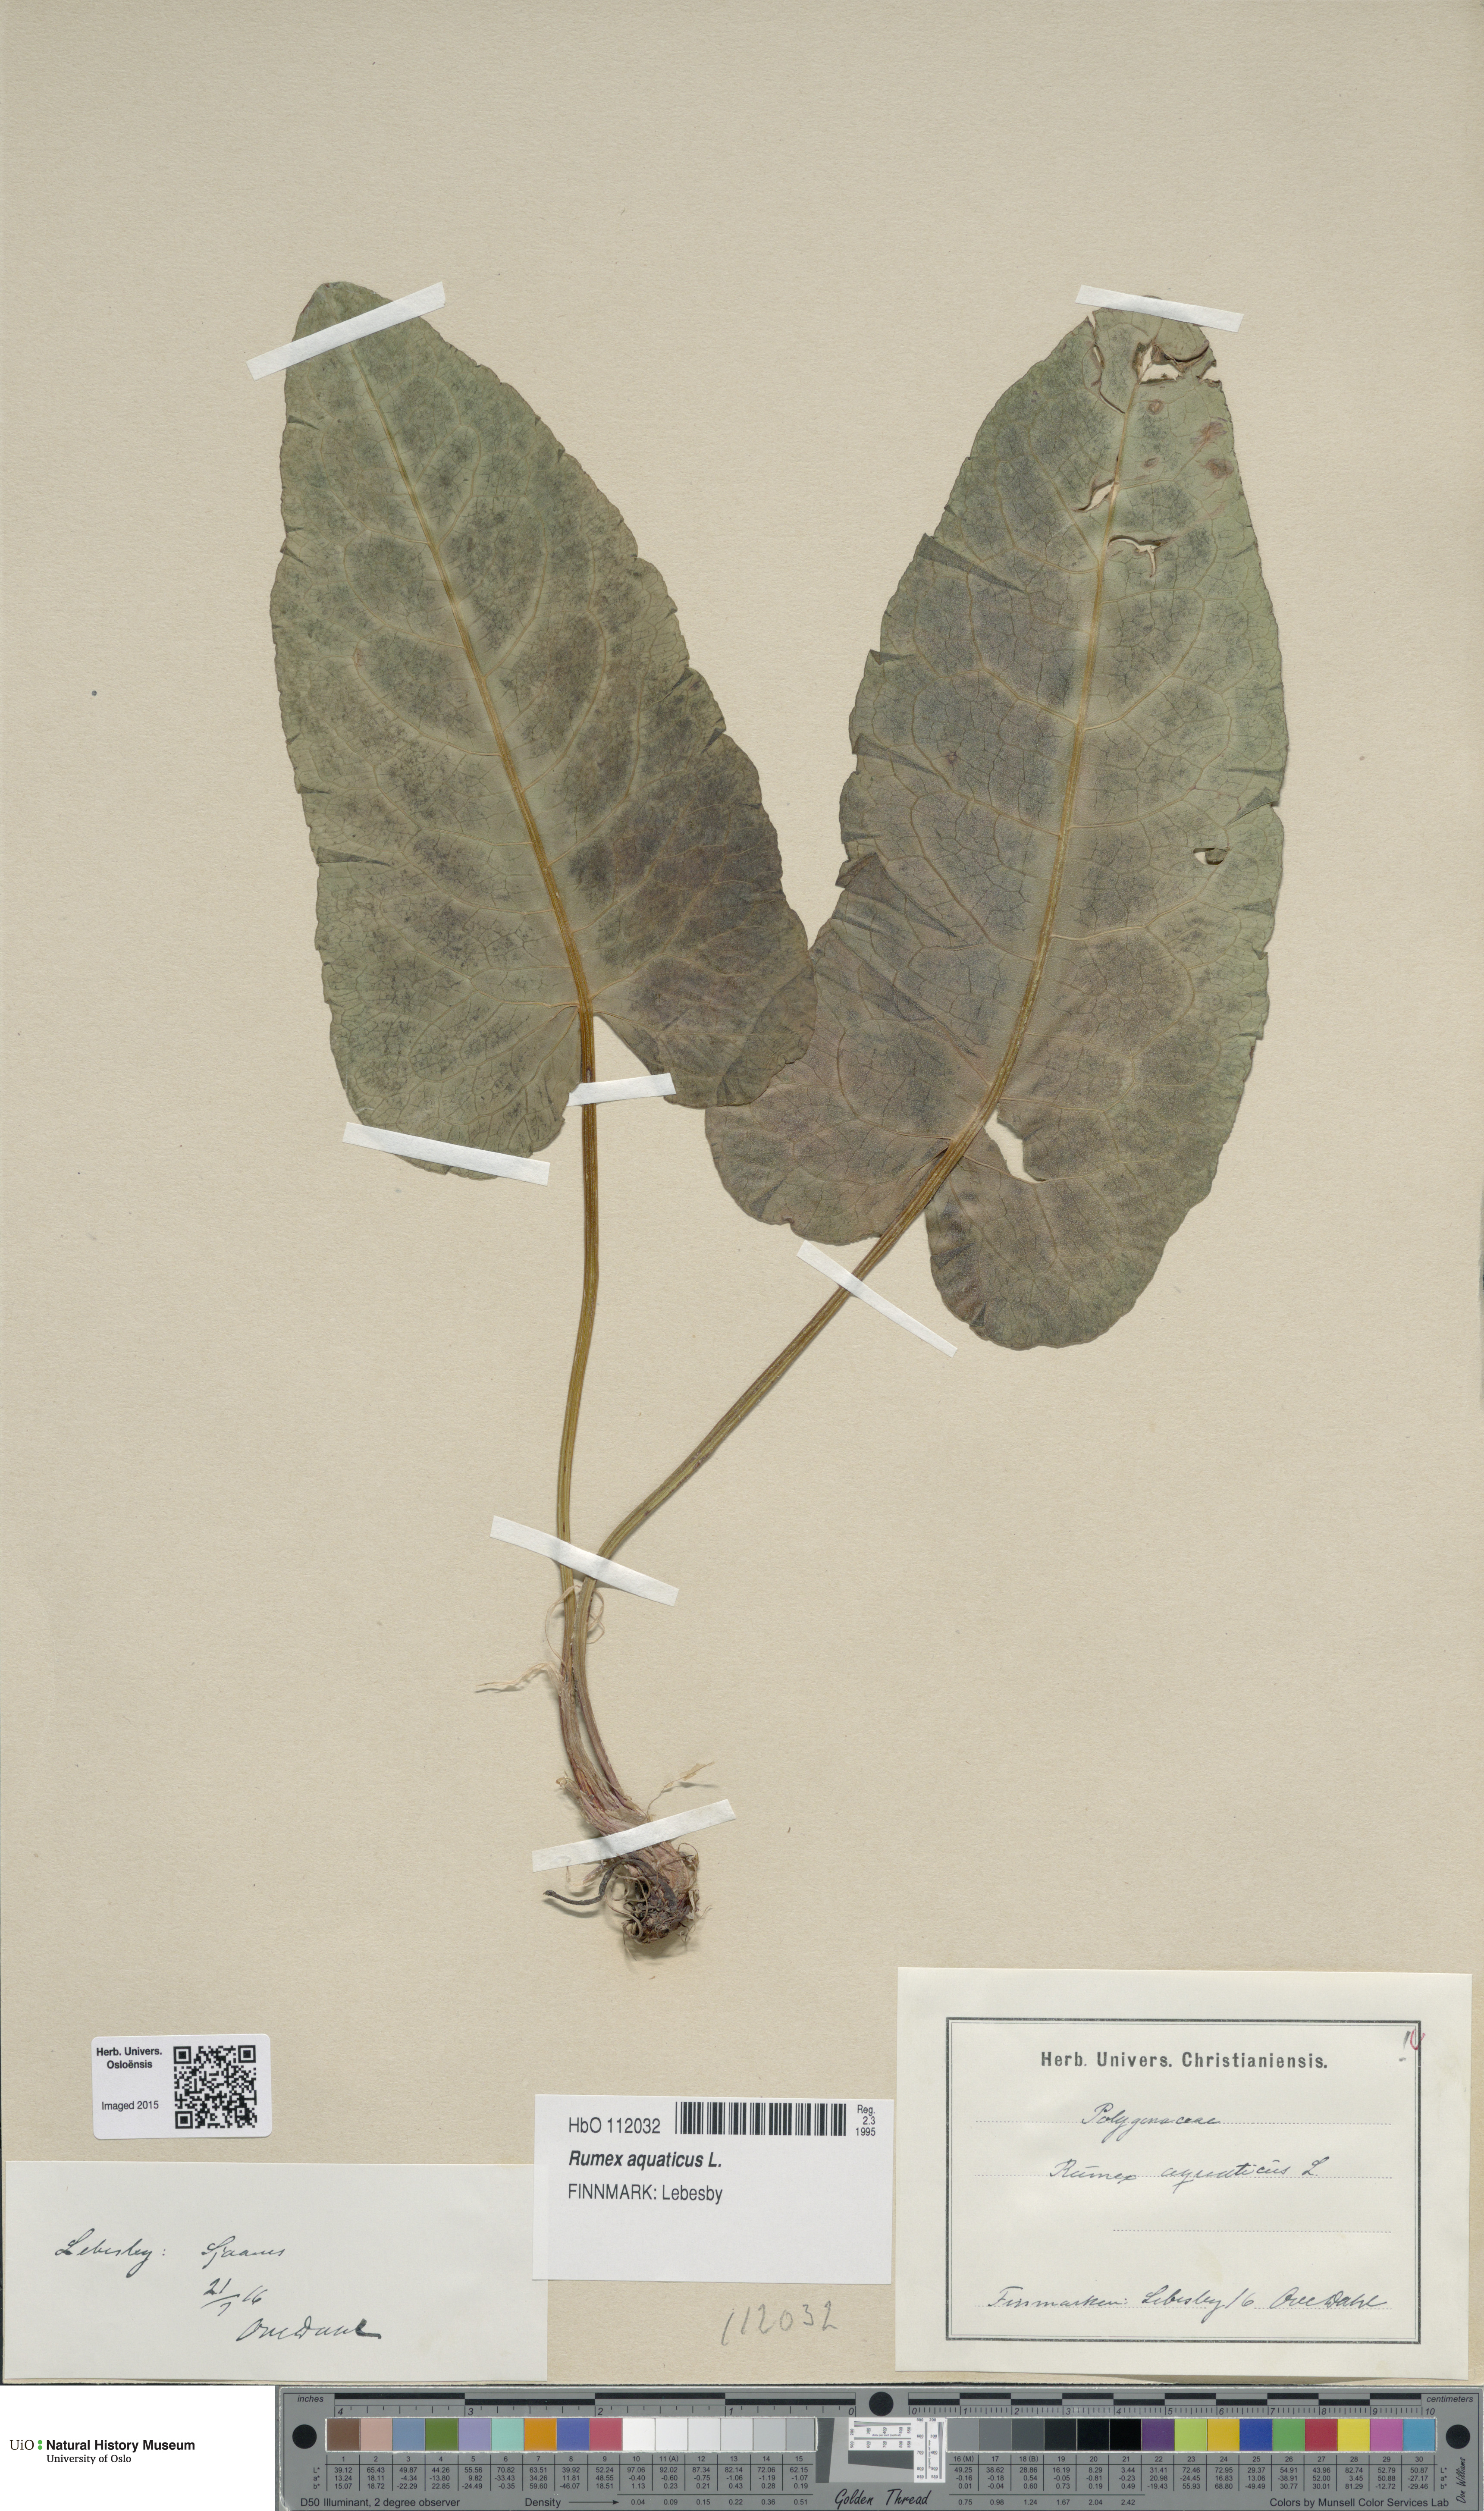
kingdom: Plantae
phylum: Tracheophyta
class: Magnoliopsida
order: Caryophyllales
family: Polygonaceae
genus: Rumex
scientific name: Rumex aquaticus
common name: Scottish dock
